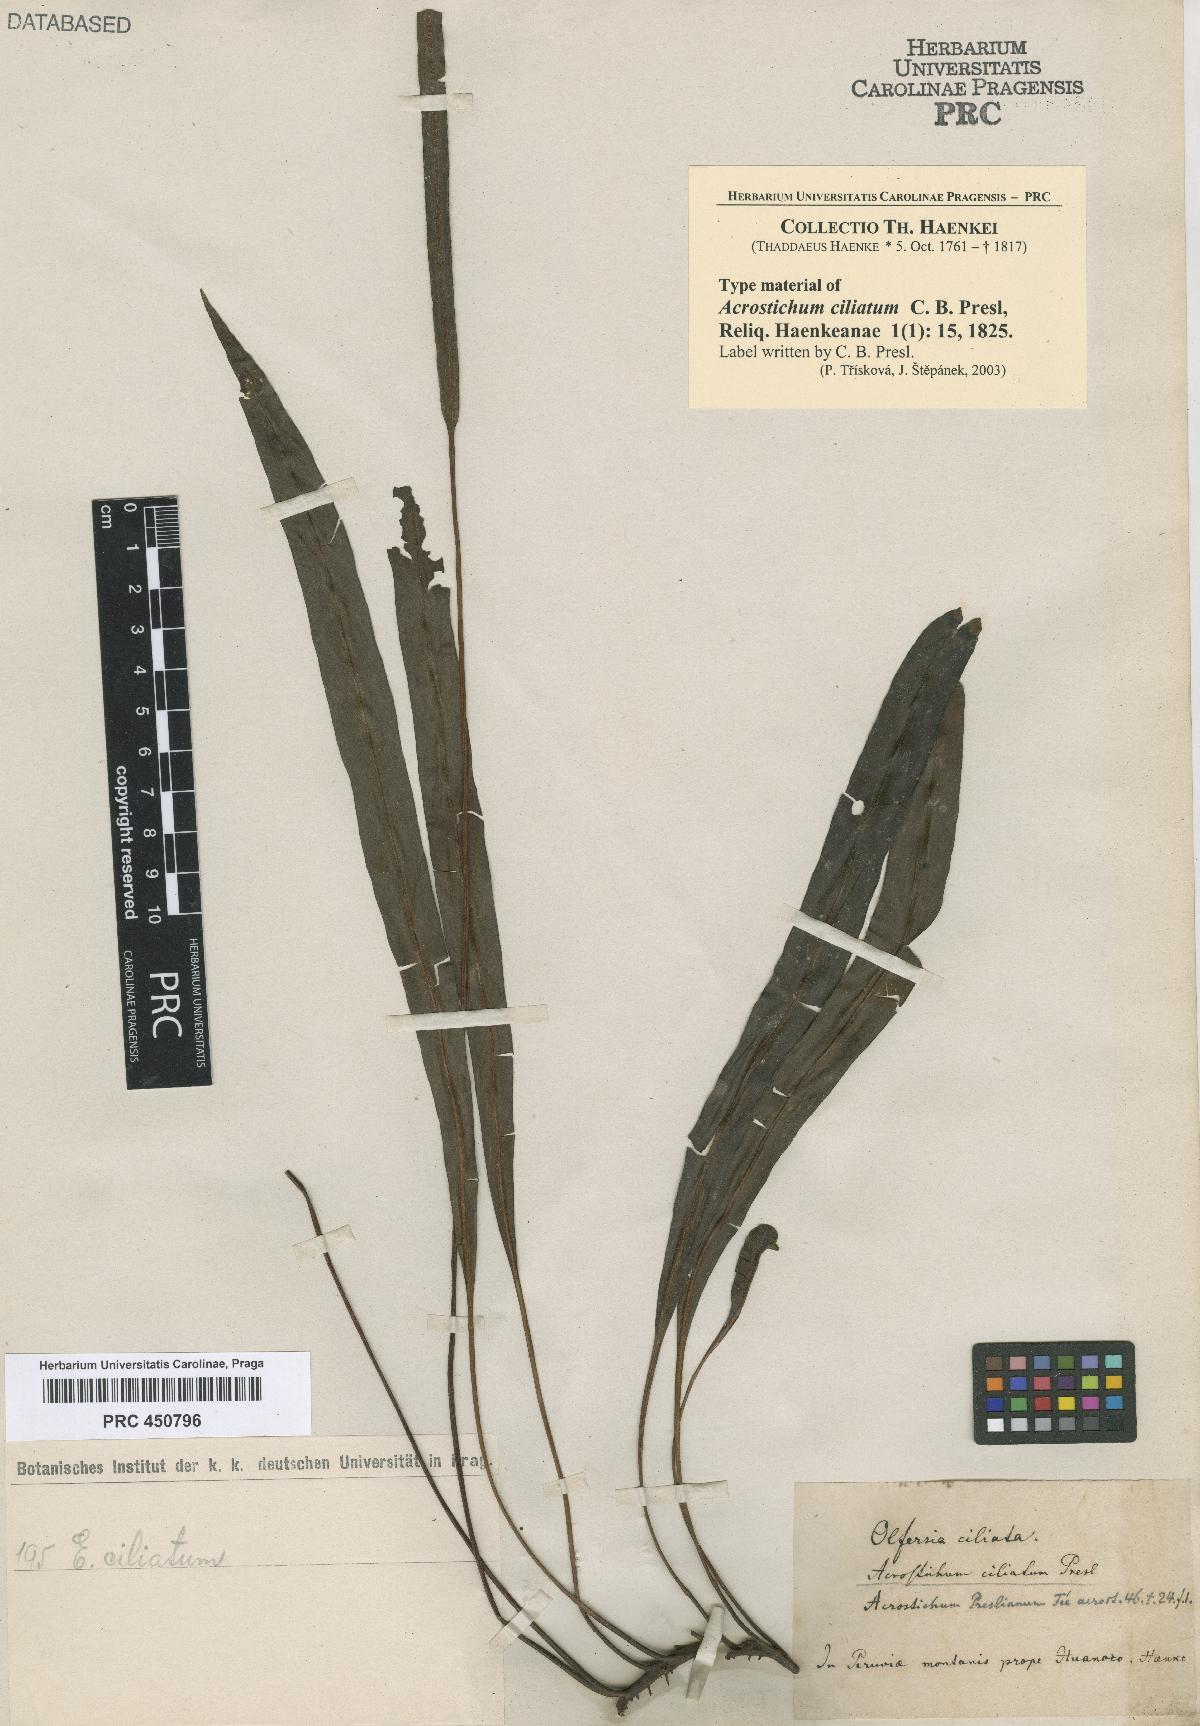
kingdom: Plantae
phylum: Tracheophyta
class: Polypodiopsida
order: Polypodiales
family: Dryopteridaceae
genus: Elaphoglossum
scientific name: Elaphoglossum ciliatum
